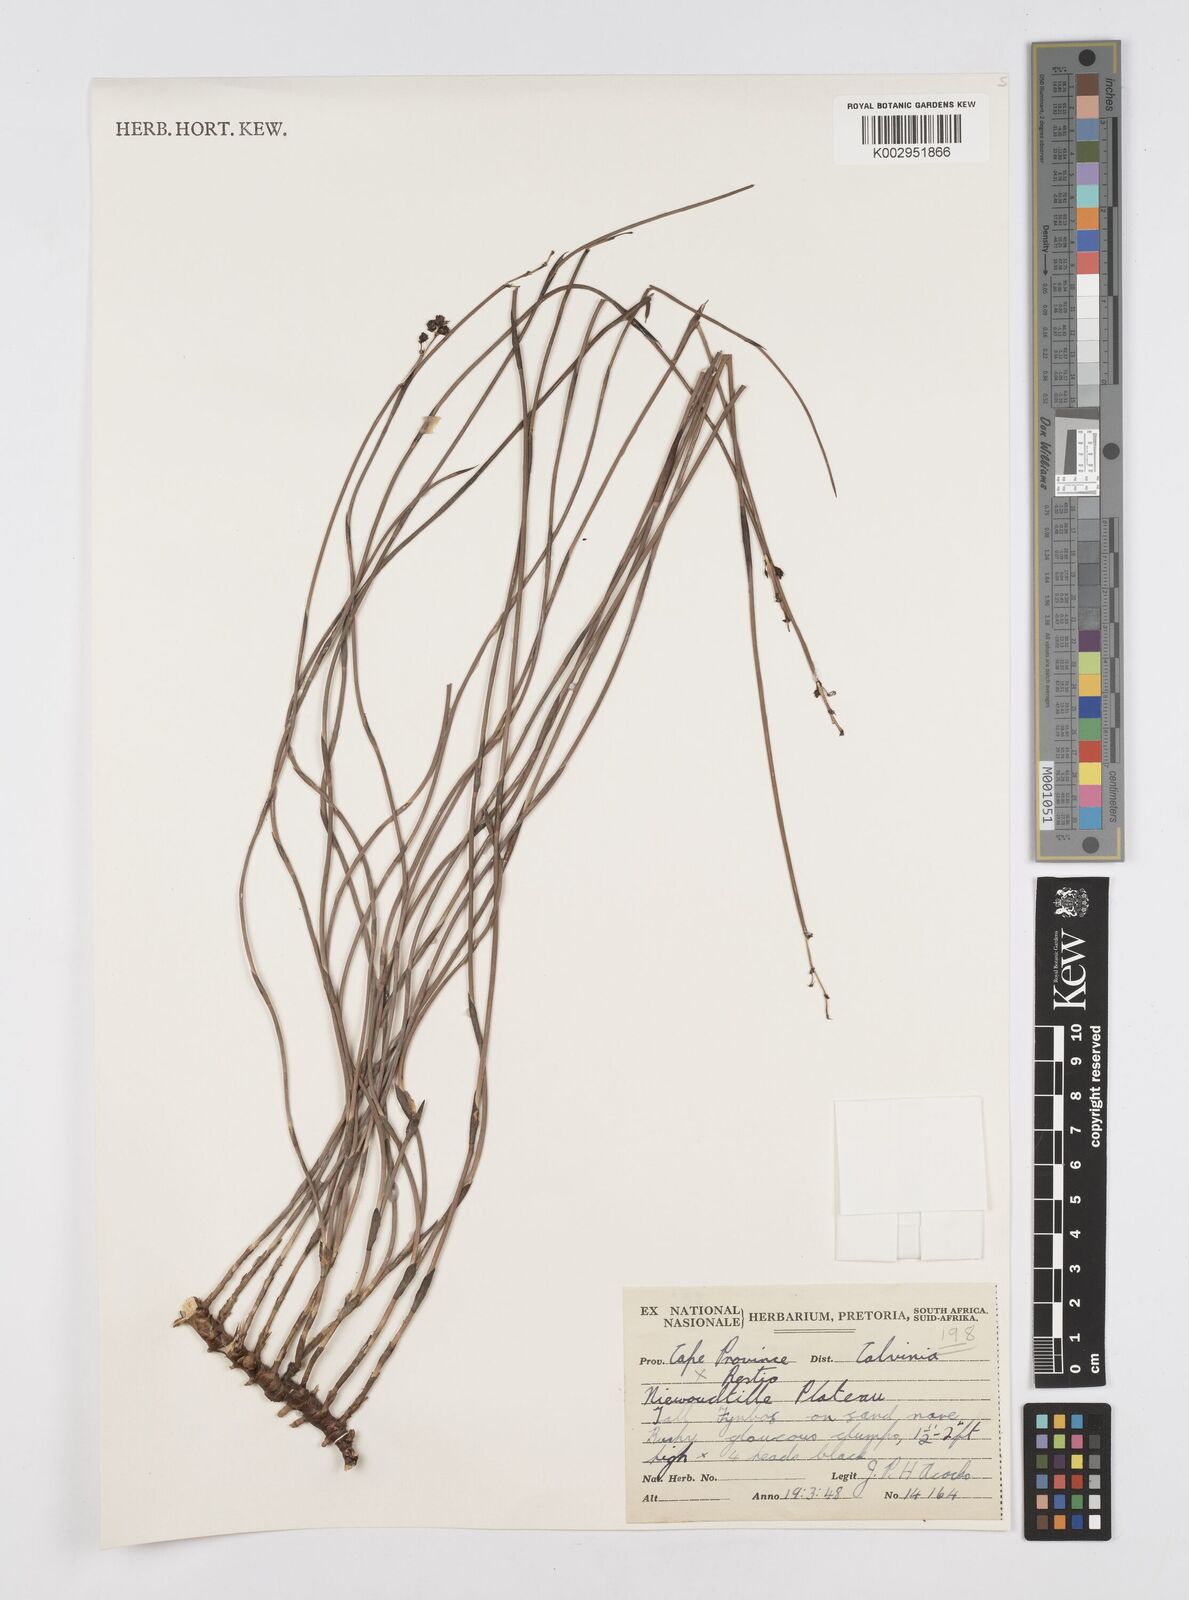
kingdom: Plantae
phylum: Tracheophyta
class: Liliopsida
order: Poales
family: Restionaceae
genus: Restio
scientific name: Restio
